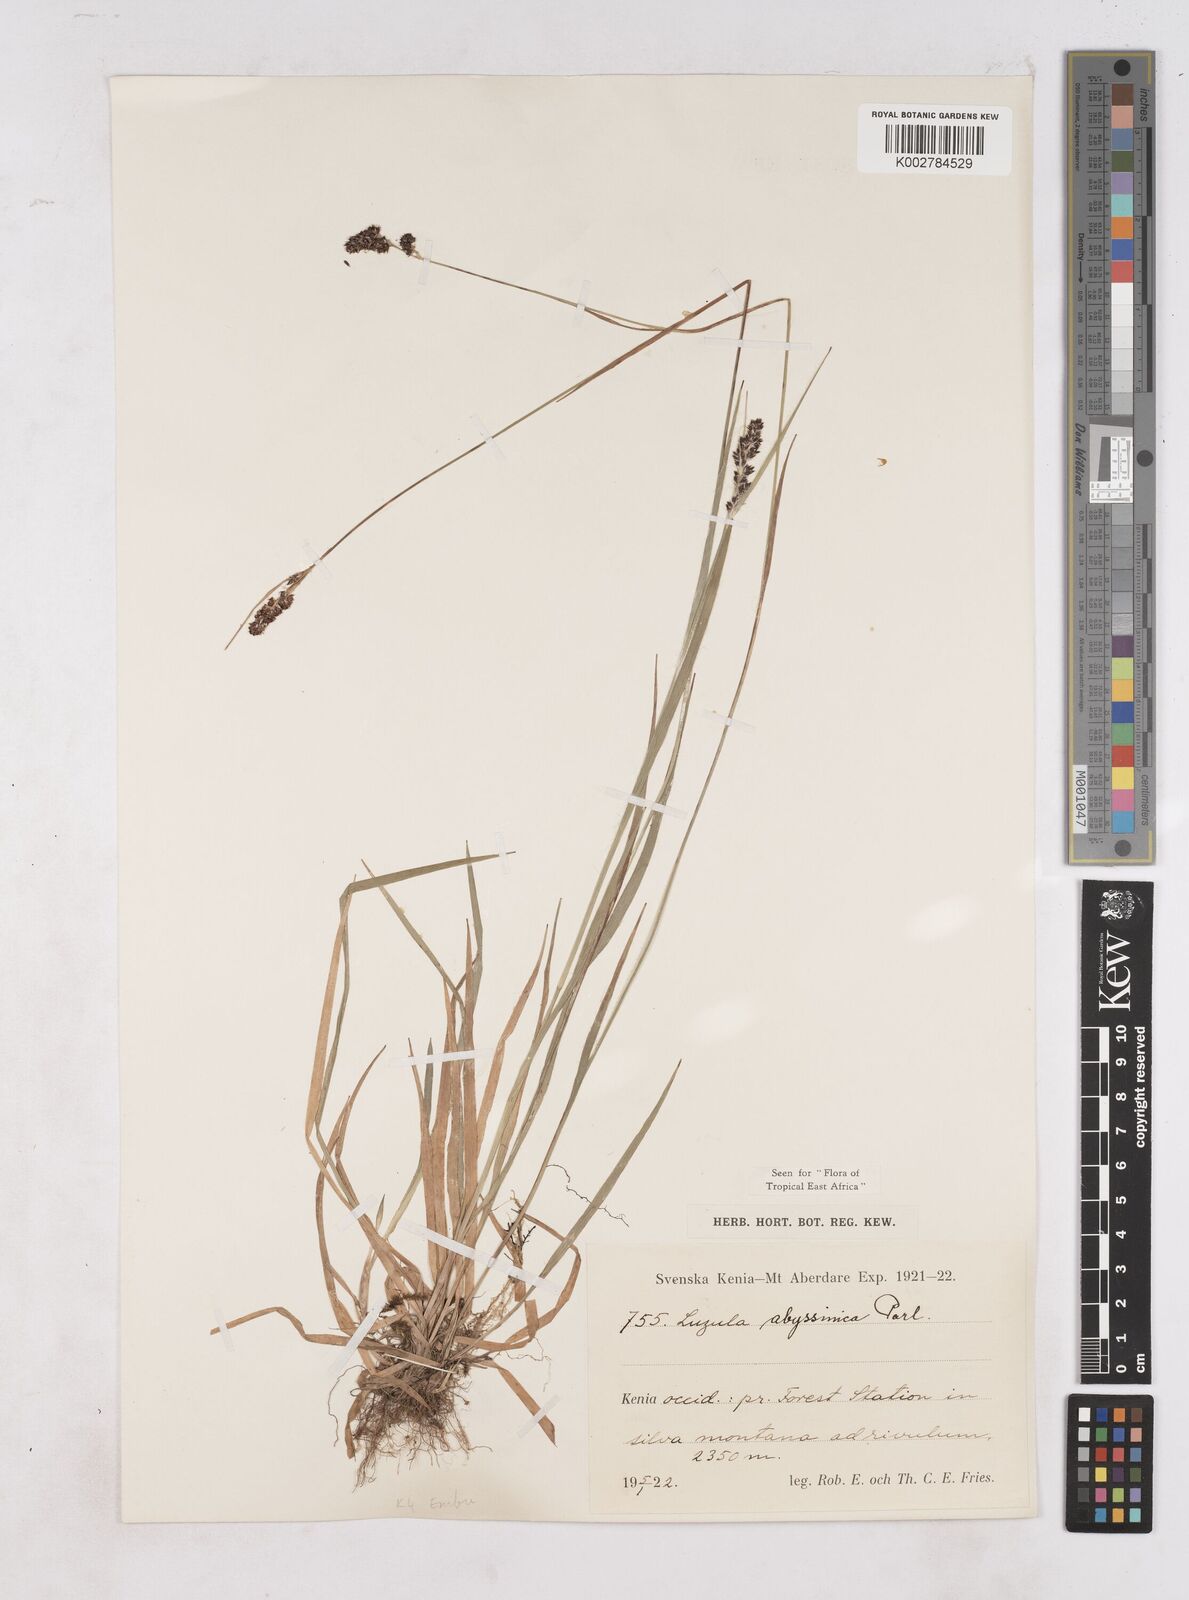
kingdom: Plantae
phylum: Tracheophyta
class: Liliopsida
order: Poales
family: Juncaceae
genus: Luzula
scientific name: Luzula abyssinica
